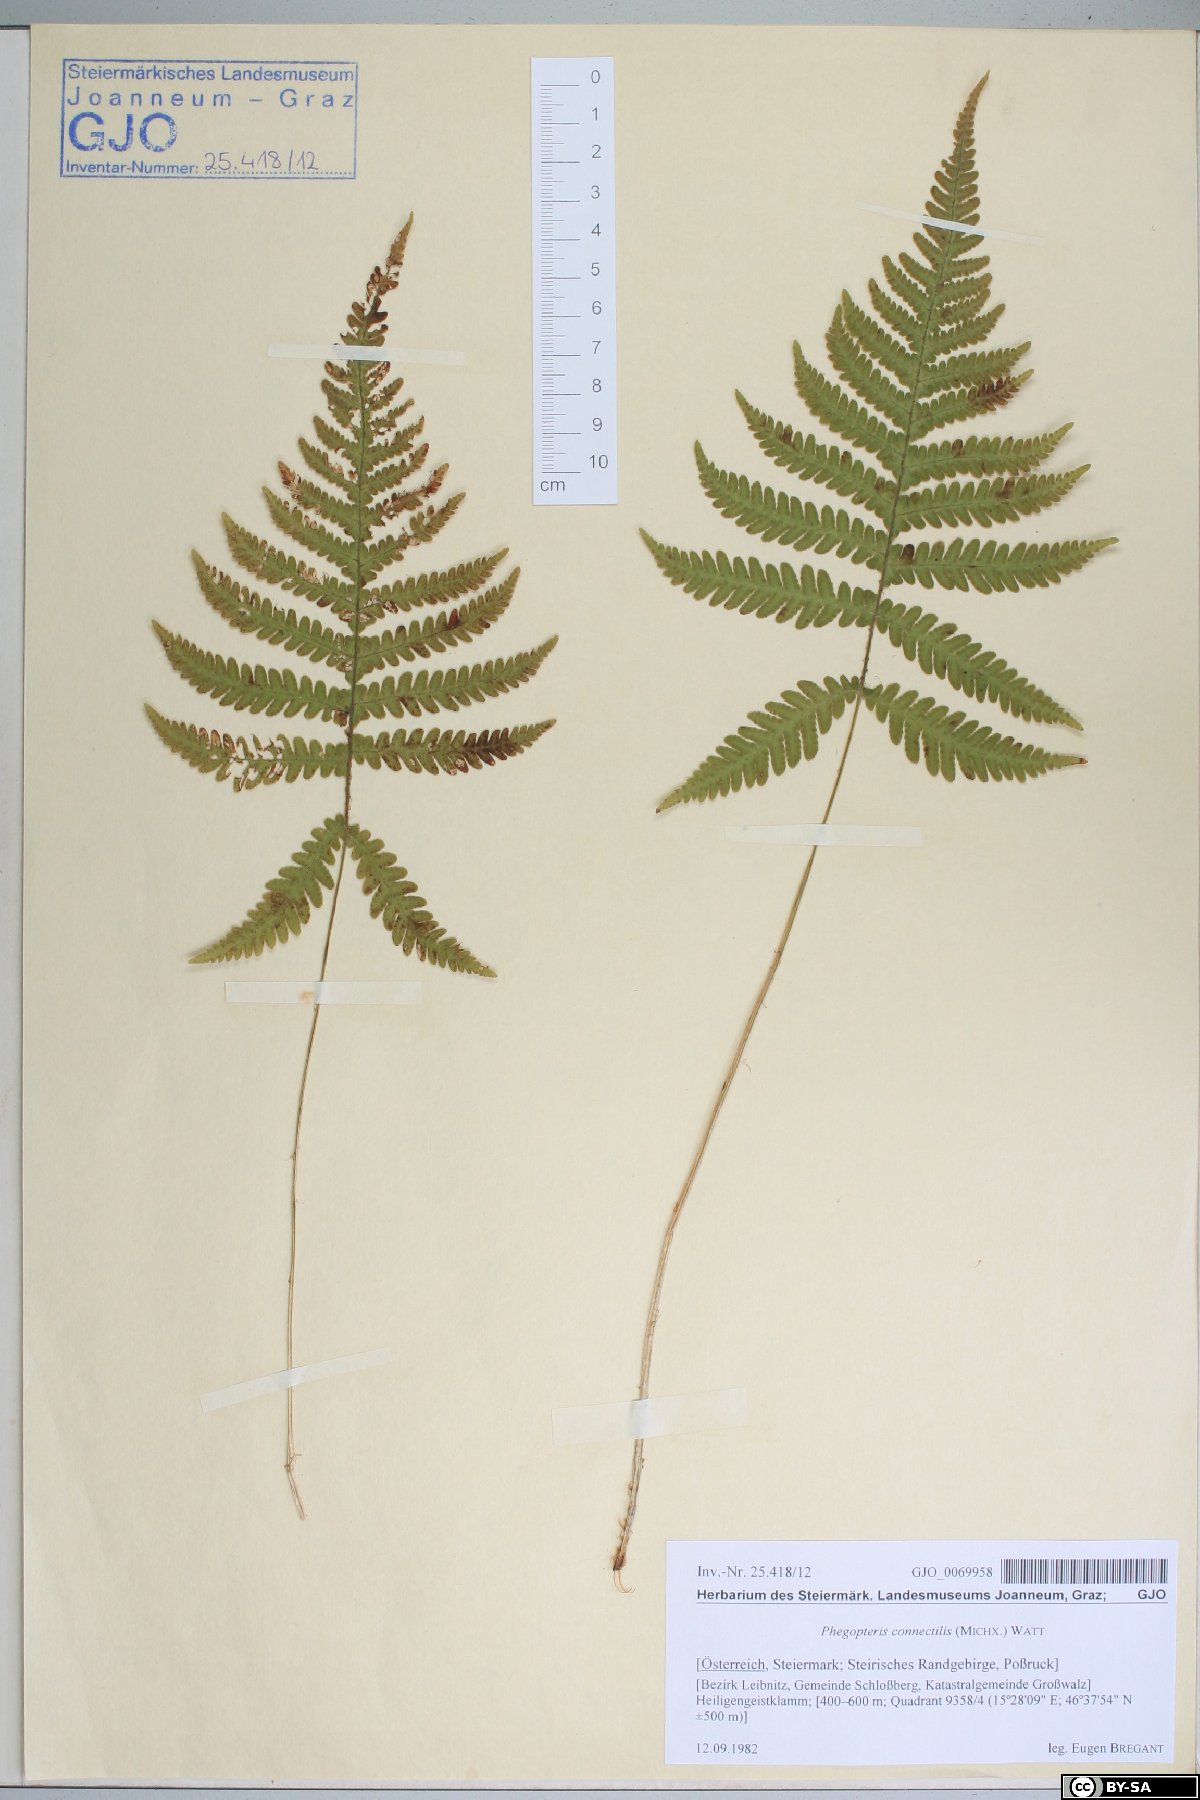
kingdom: Plantae
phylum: Tracheophyta
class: Polypodiopsida
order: Polypodiales
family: Thelypteridaceae
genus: Phegopteris
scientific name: Phegopteris connectilis
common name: Beech fern
